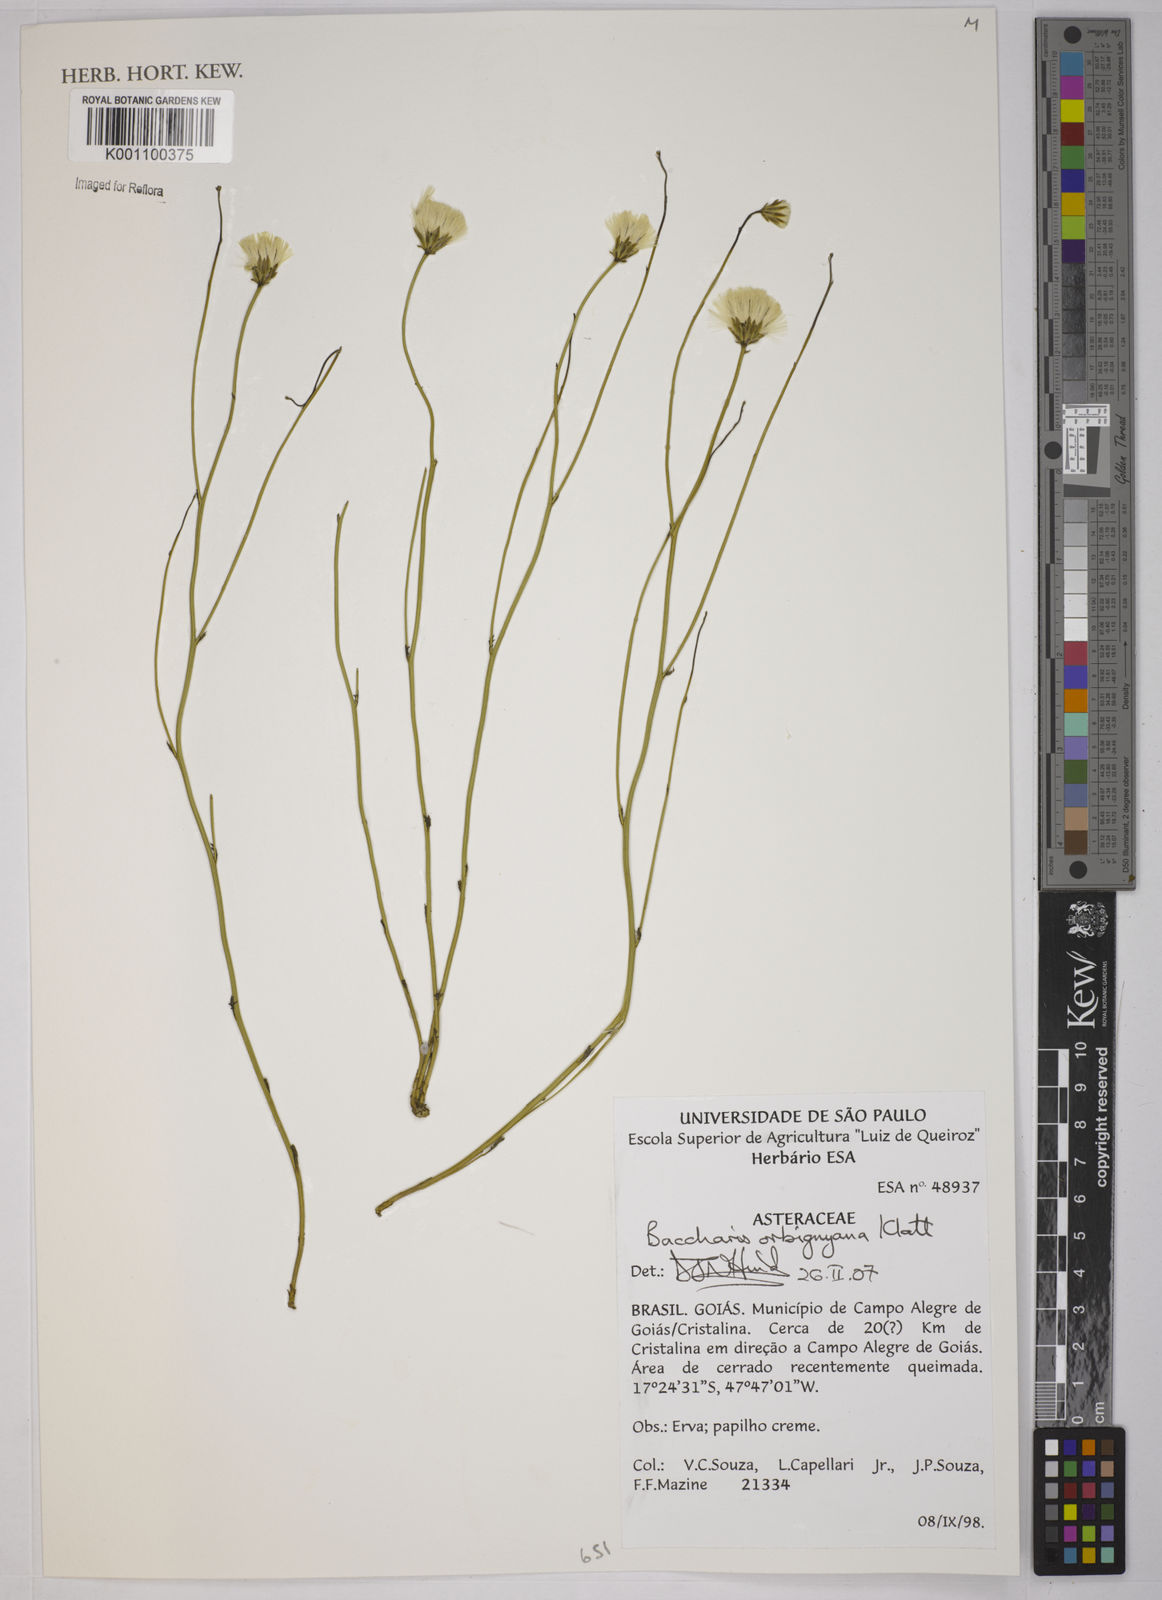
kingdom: Plantae
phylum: Tracheophyta
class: Magnoliopsida
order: Asterales
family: Asteraceae
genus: Baccharis
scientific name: Baccharis orbignyana
